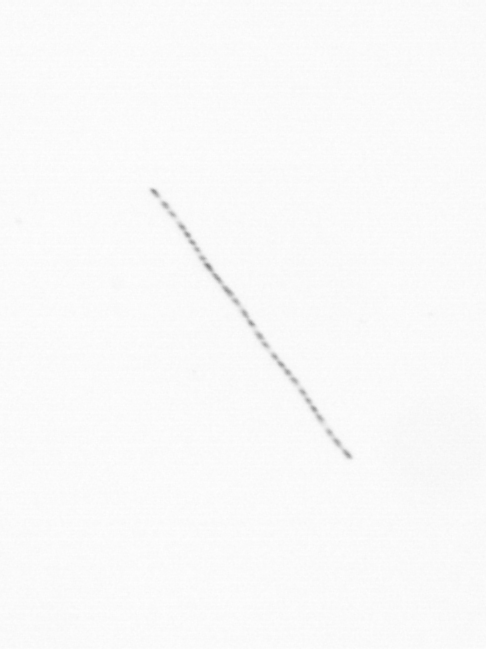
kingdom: Chromista
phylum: Ochrophyta
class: Bacillariophyceae
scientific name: Bacillariophyceae
